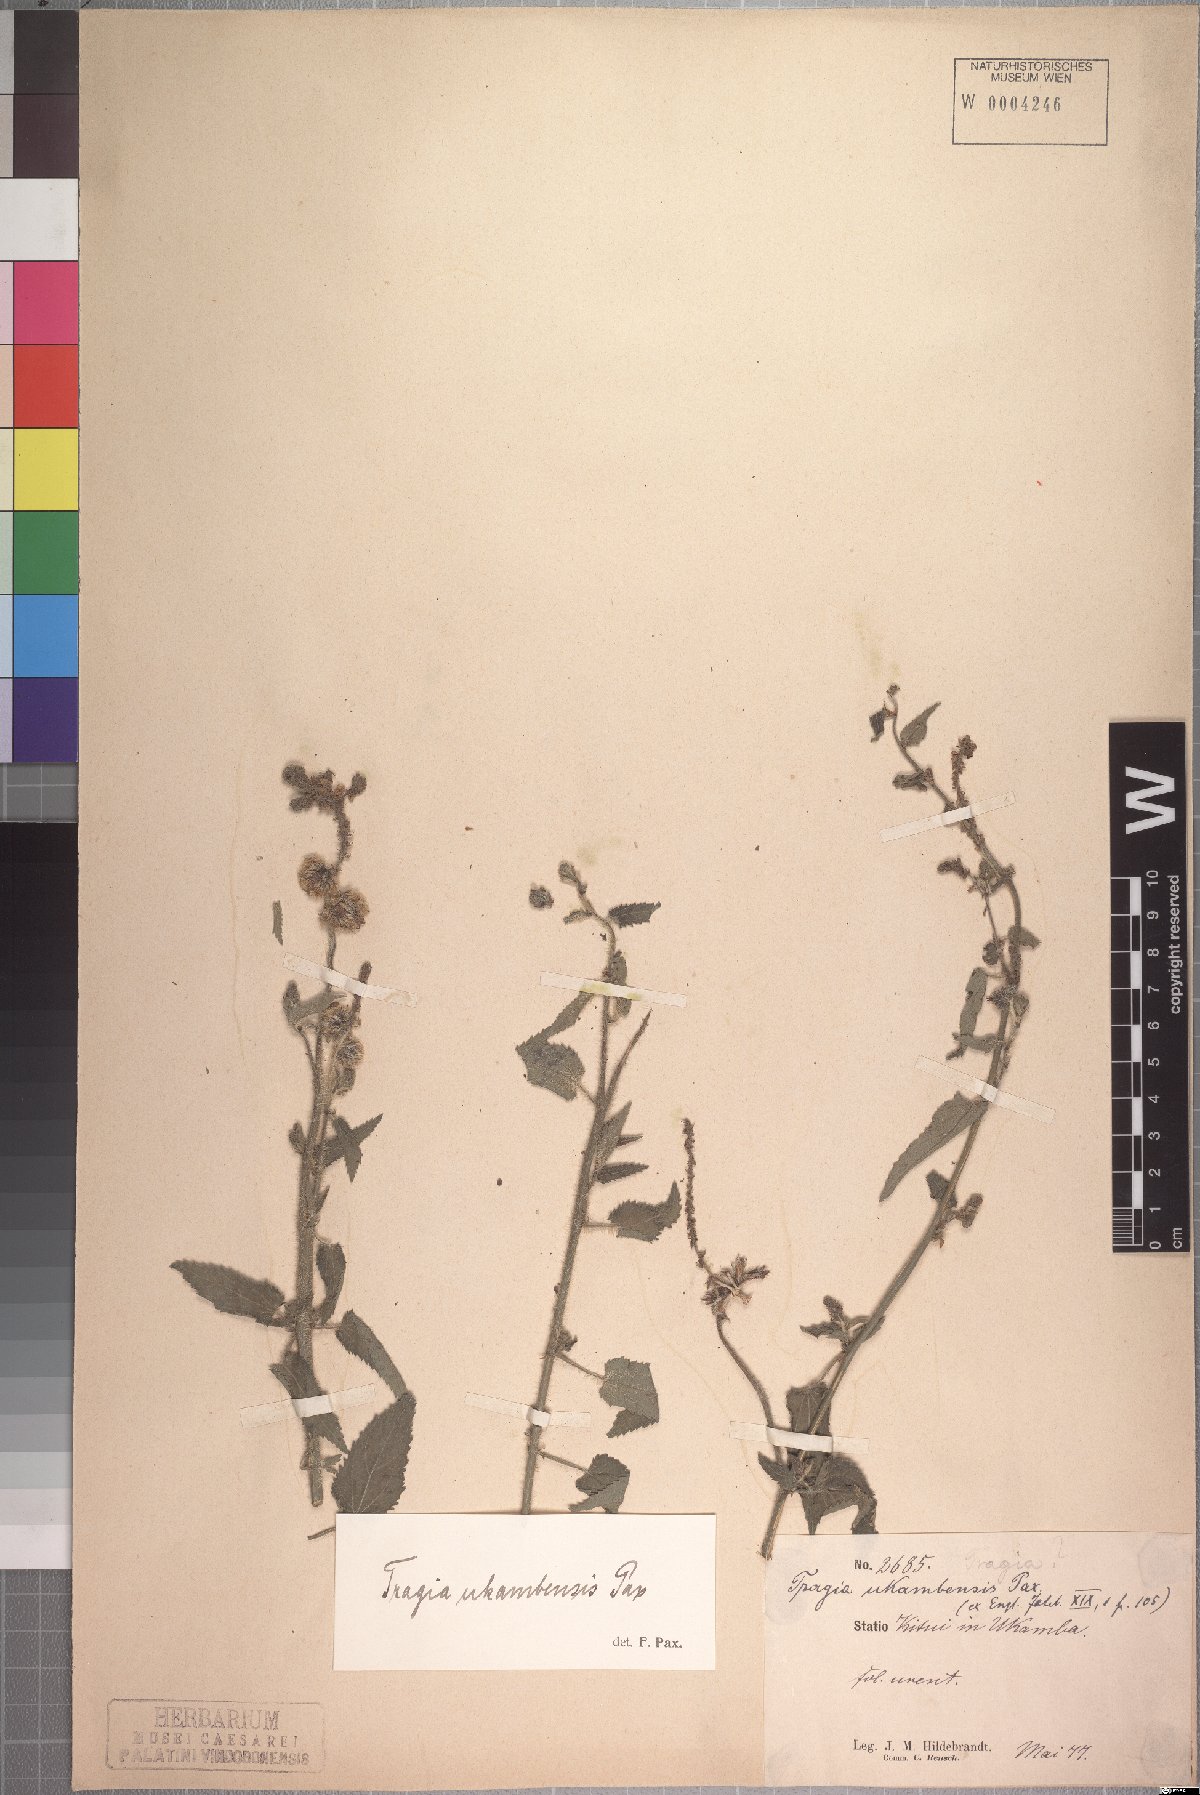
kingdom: Plantae
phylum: Tracheophyta
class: Magnoliopsida
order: Malpighiales
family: Euphorbiaceae
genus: Tragia
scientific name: Tragia ukambensis
